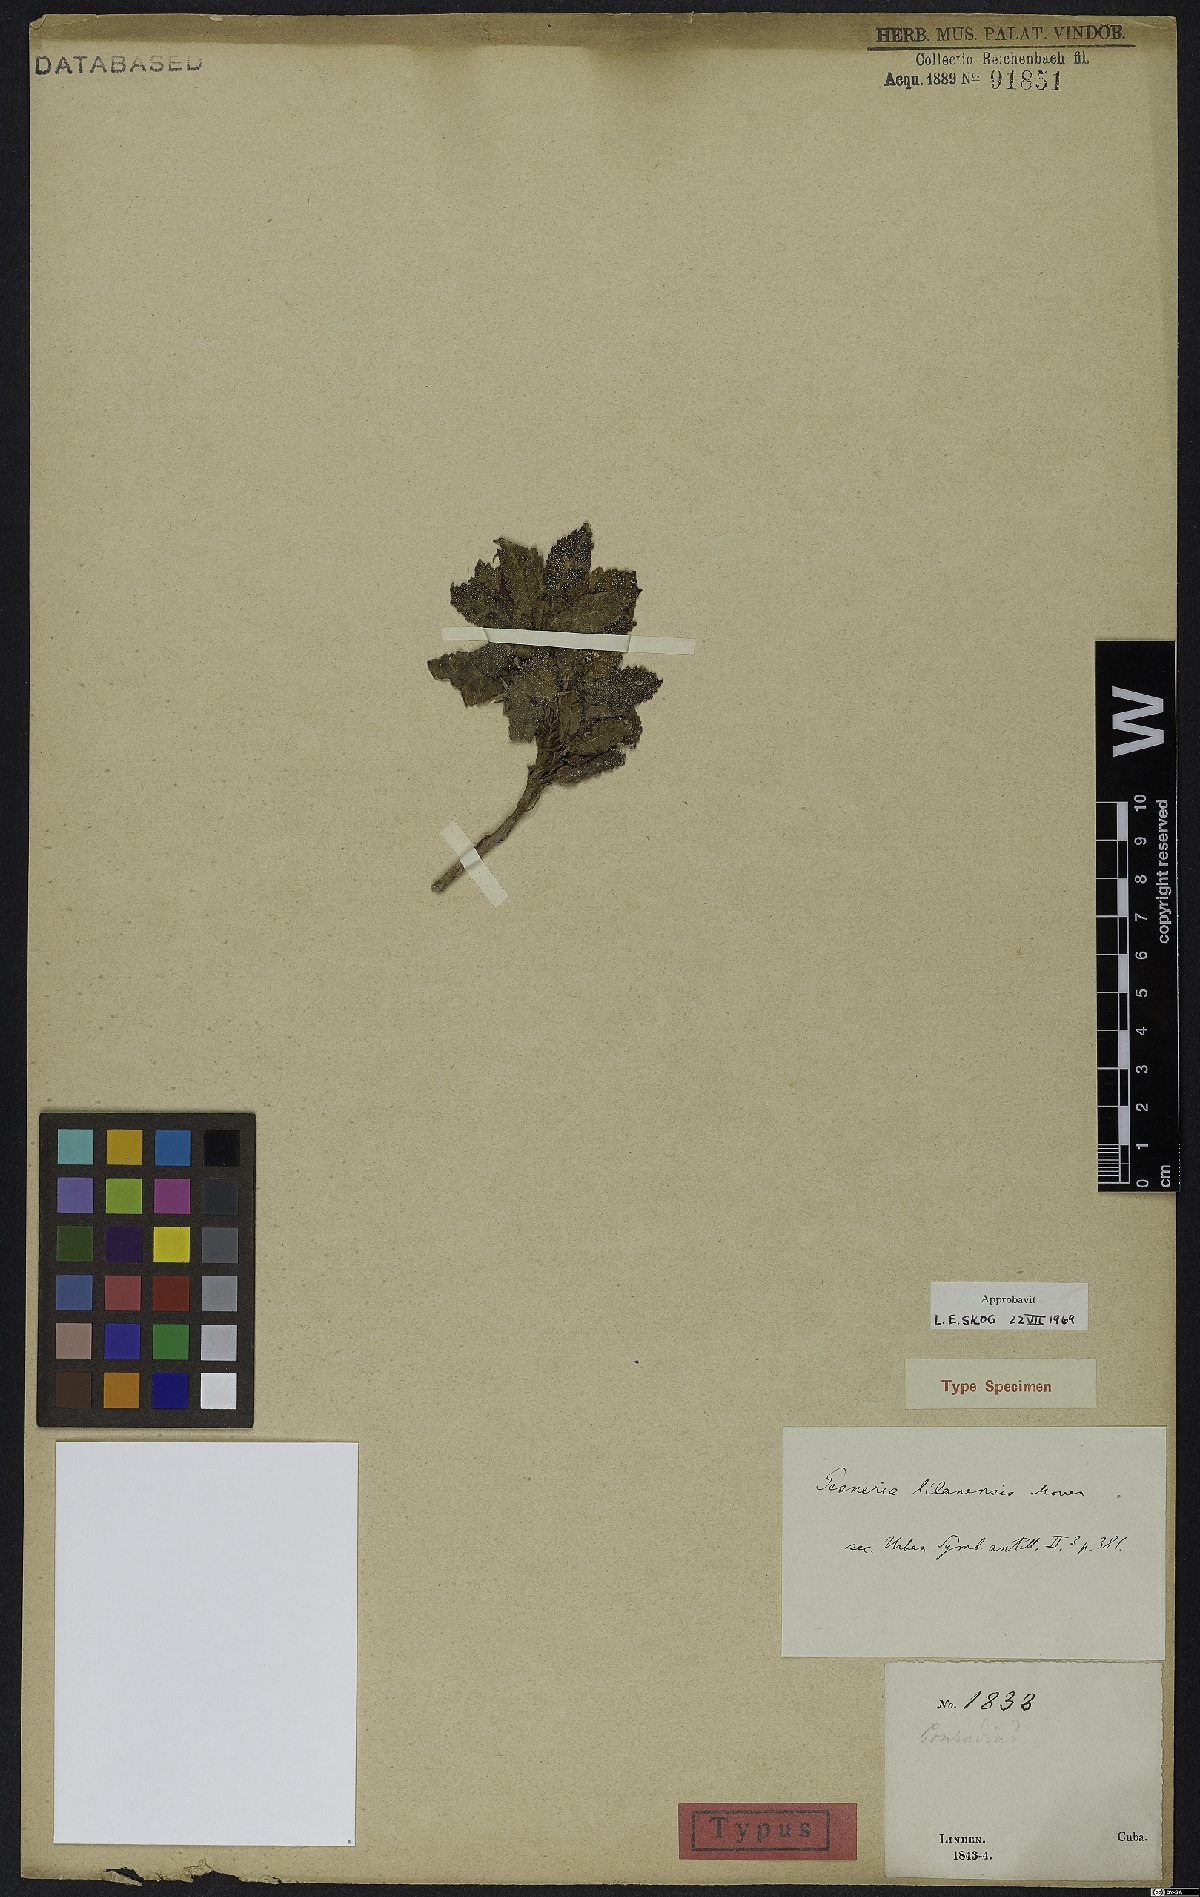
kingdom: Plantae
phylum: Tracheophyta
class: Magnoliopsida
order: Lamiales
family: Gesneriaceae
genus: Gesneria
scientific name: Gesneria libanensis
